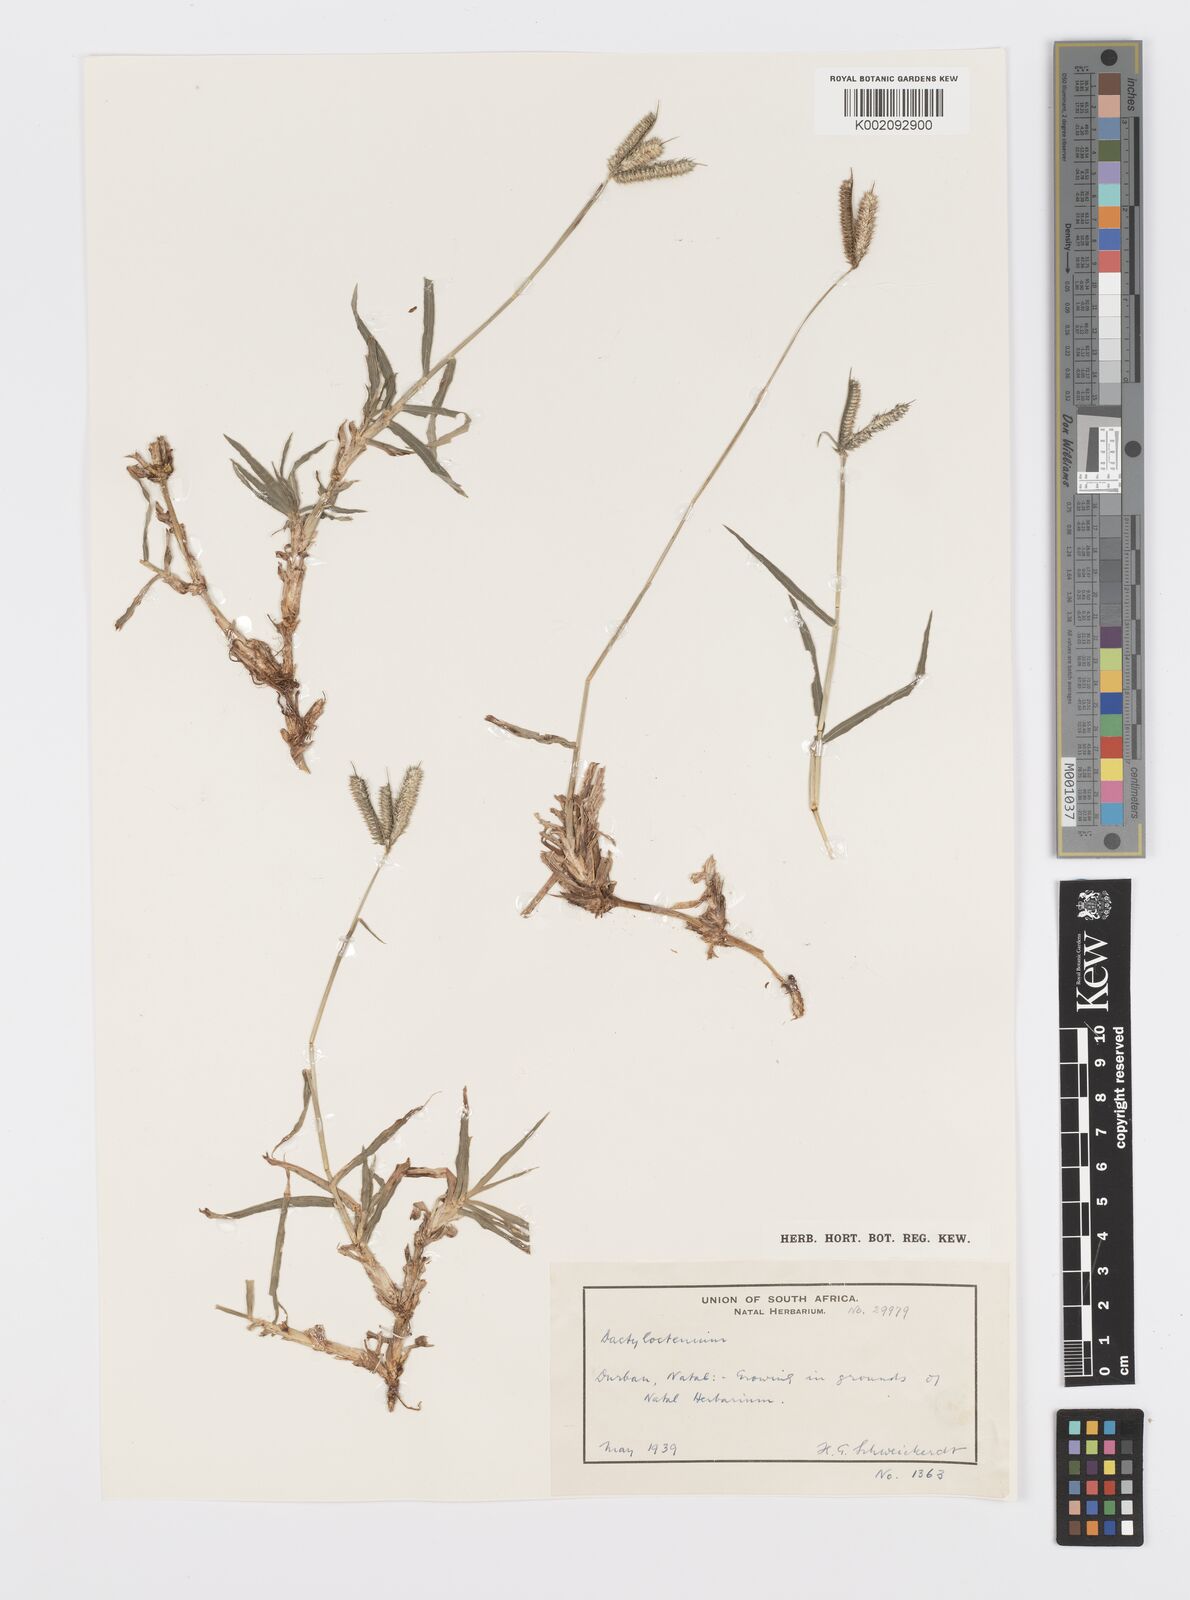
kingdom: Plantae
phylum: Tracheophyta
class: Liliopsida
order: Poales
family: Poaceae
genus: Dactyloctenium
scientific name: Dactyloctenium australe
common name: Durban grass
